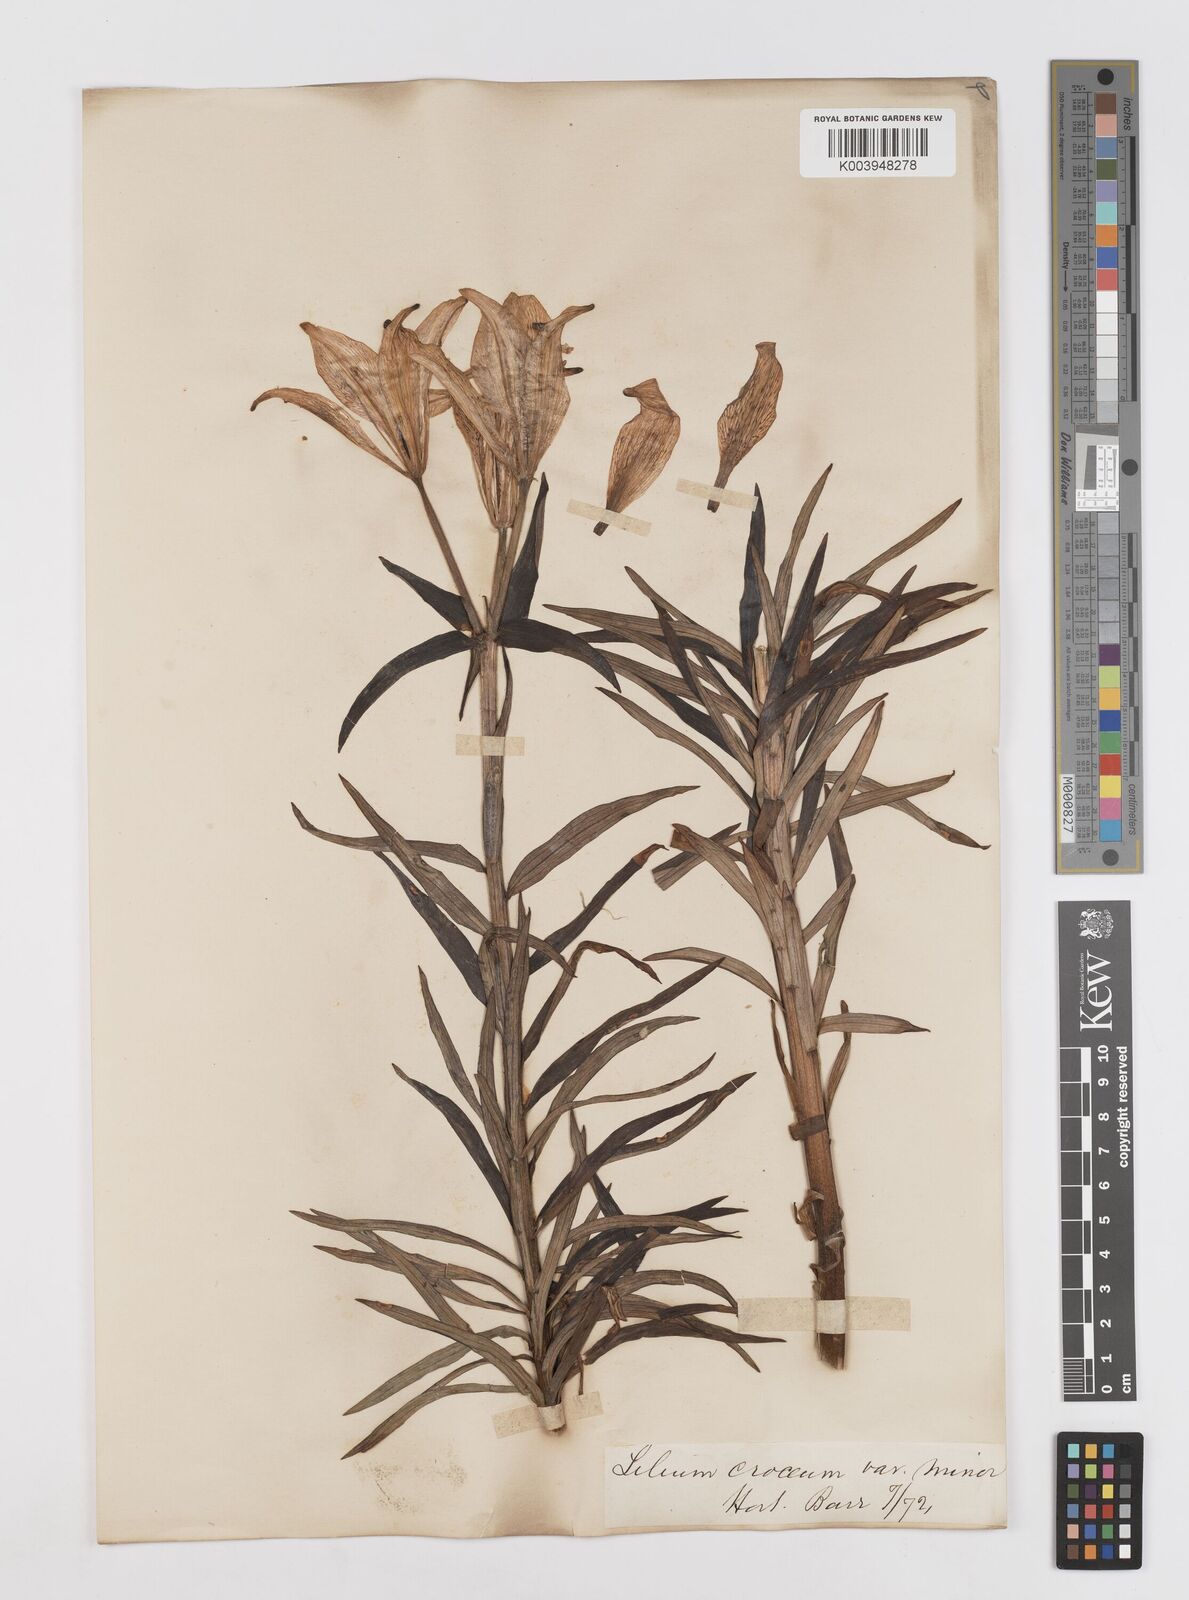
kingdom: Plantae
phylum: Tracheophyta
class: Liliopsida
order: Liliales
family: Liliaceae
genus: Lilium
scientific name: Lilium bulbiferum
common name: Orange lily
